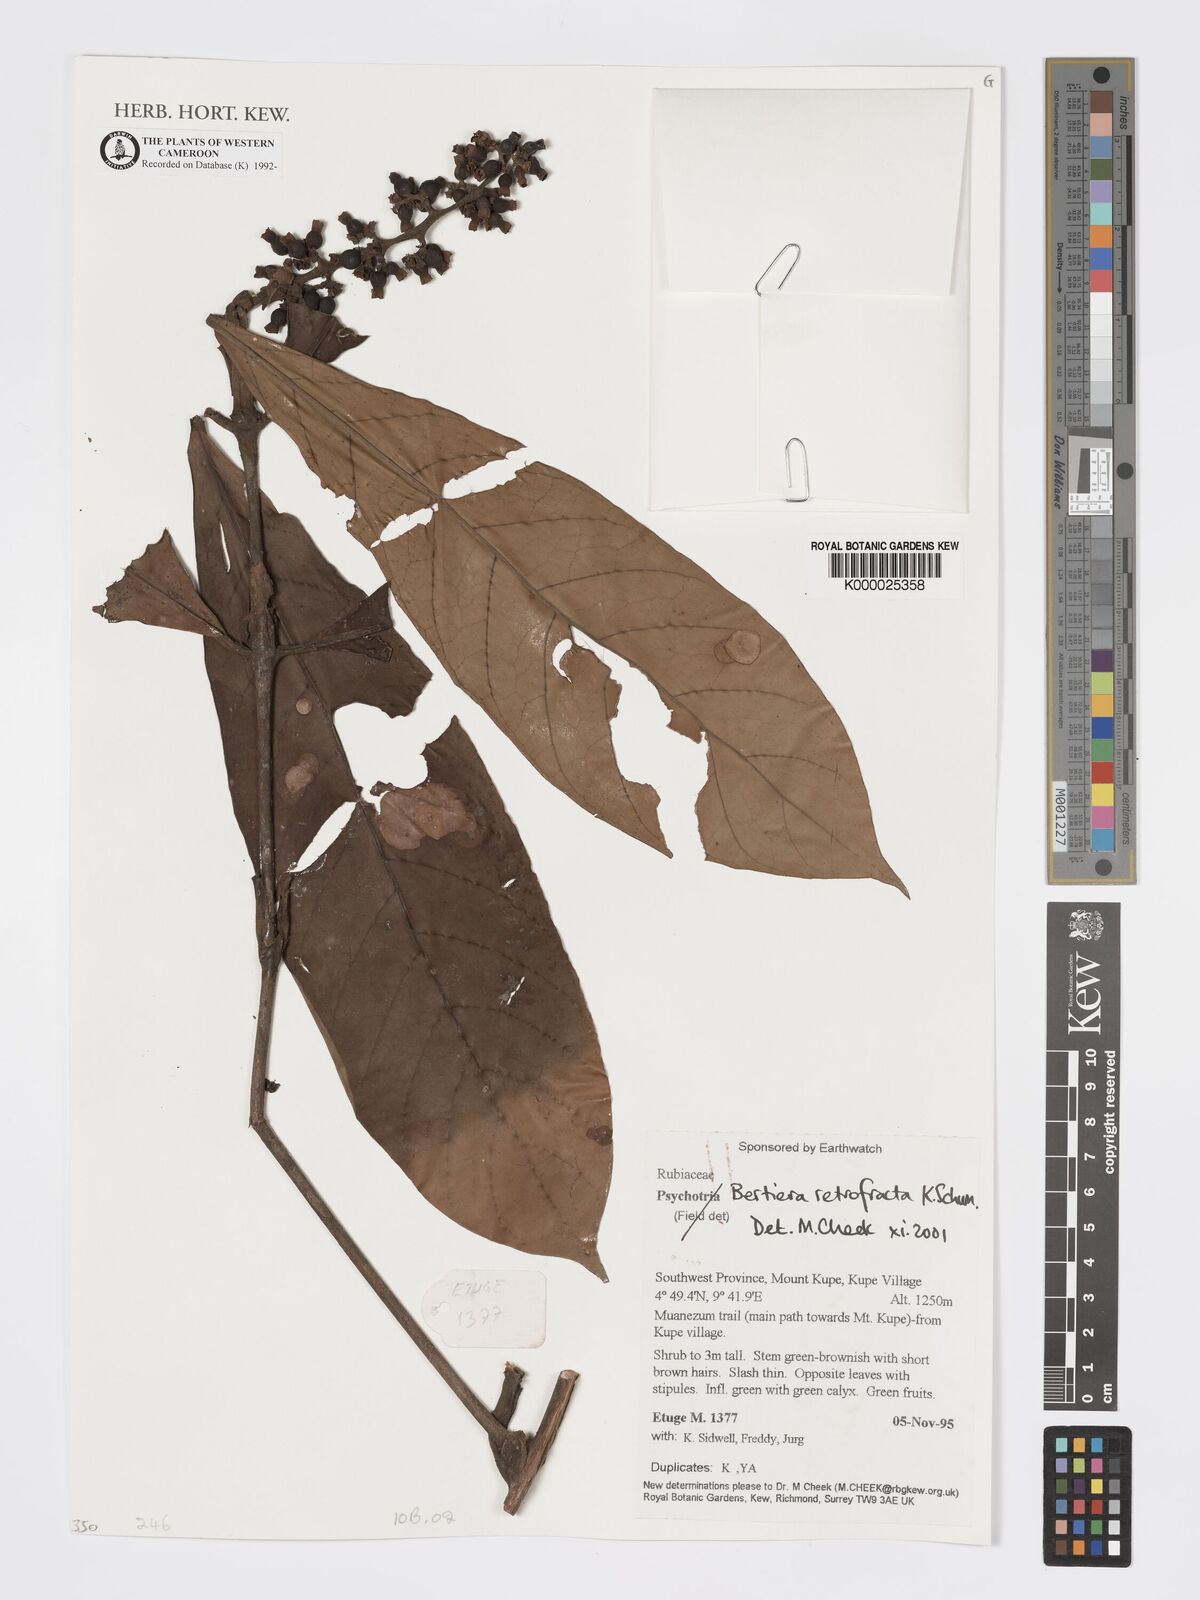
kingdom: Plantae
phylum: Tracheophyta
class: Magnoliopsida
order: Gentianales
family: Rubiaceae
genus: Bertiera
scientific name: Bertiera retrofracta
